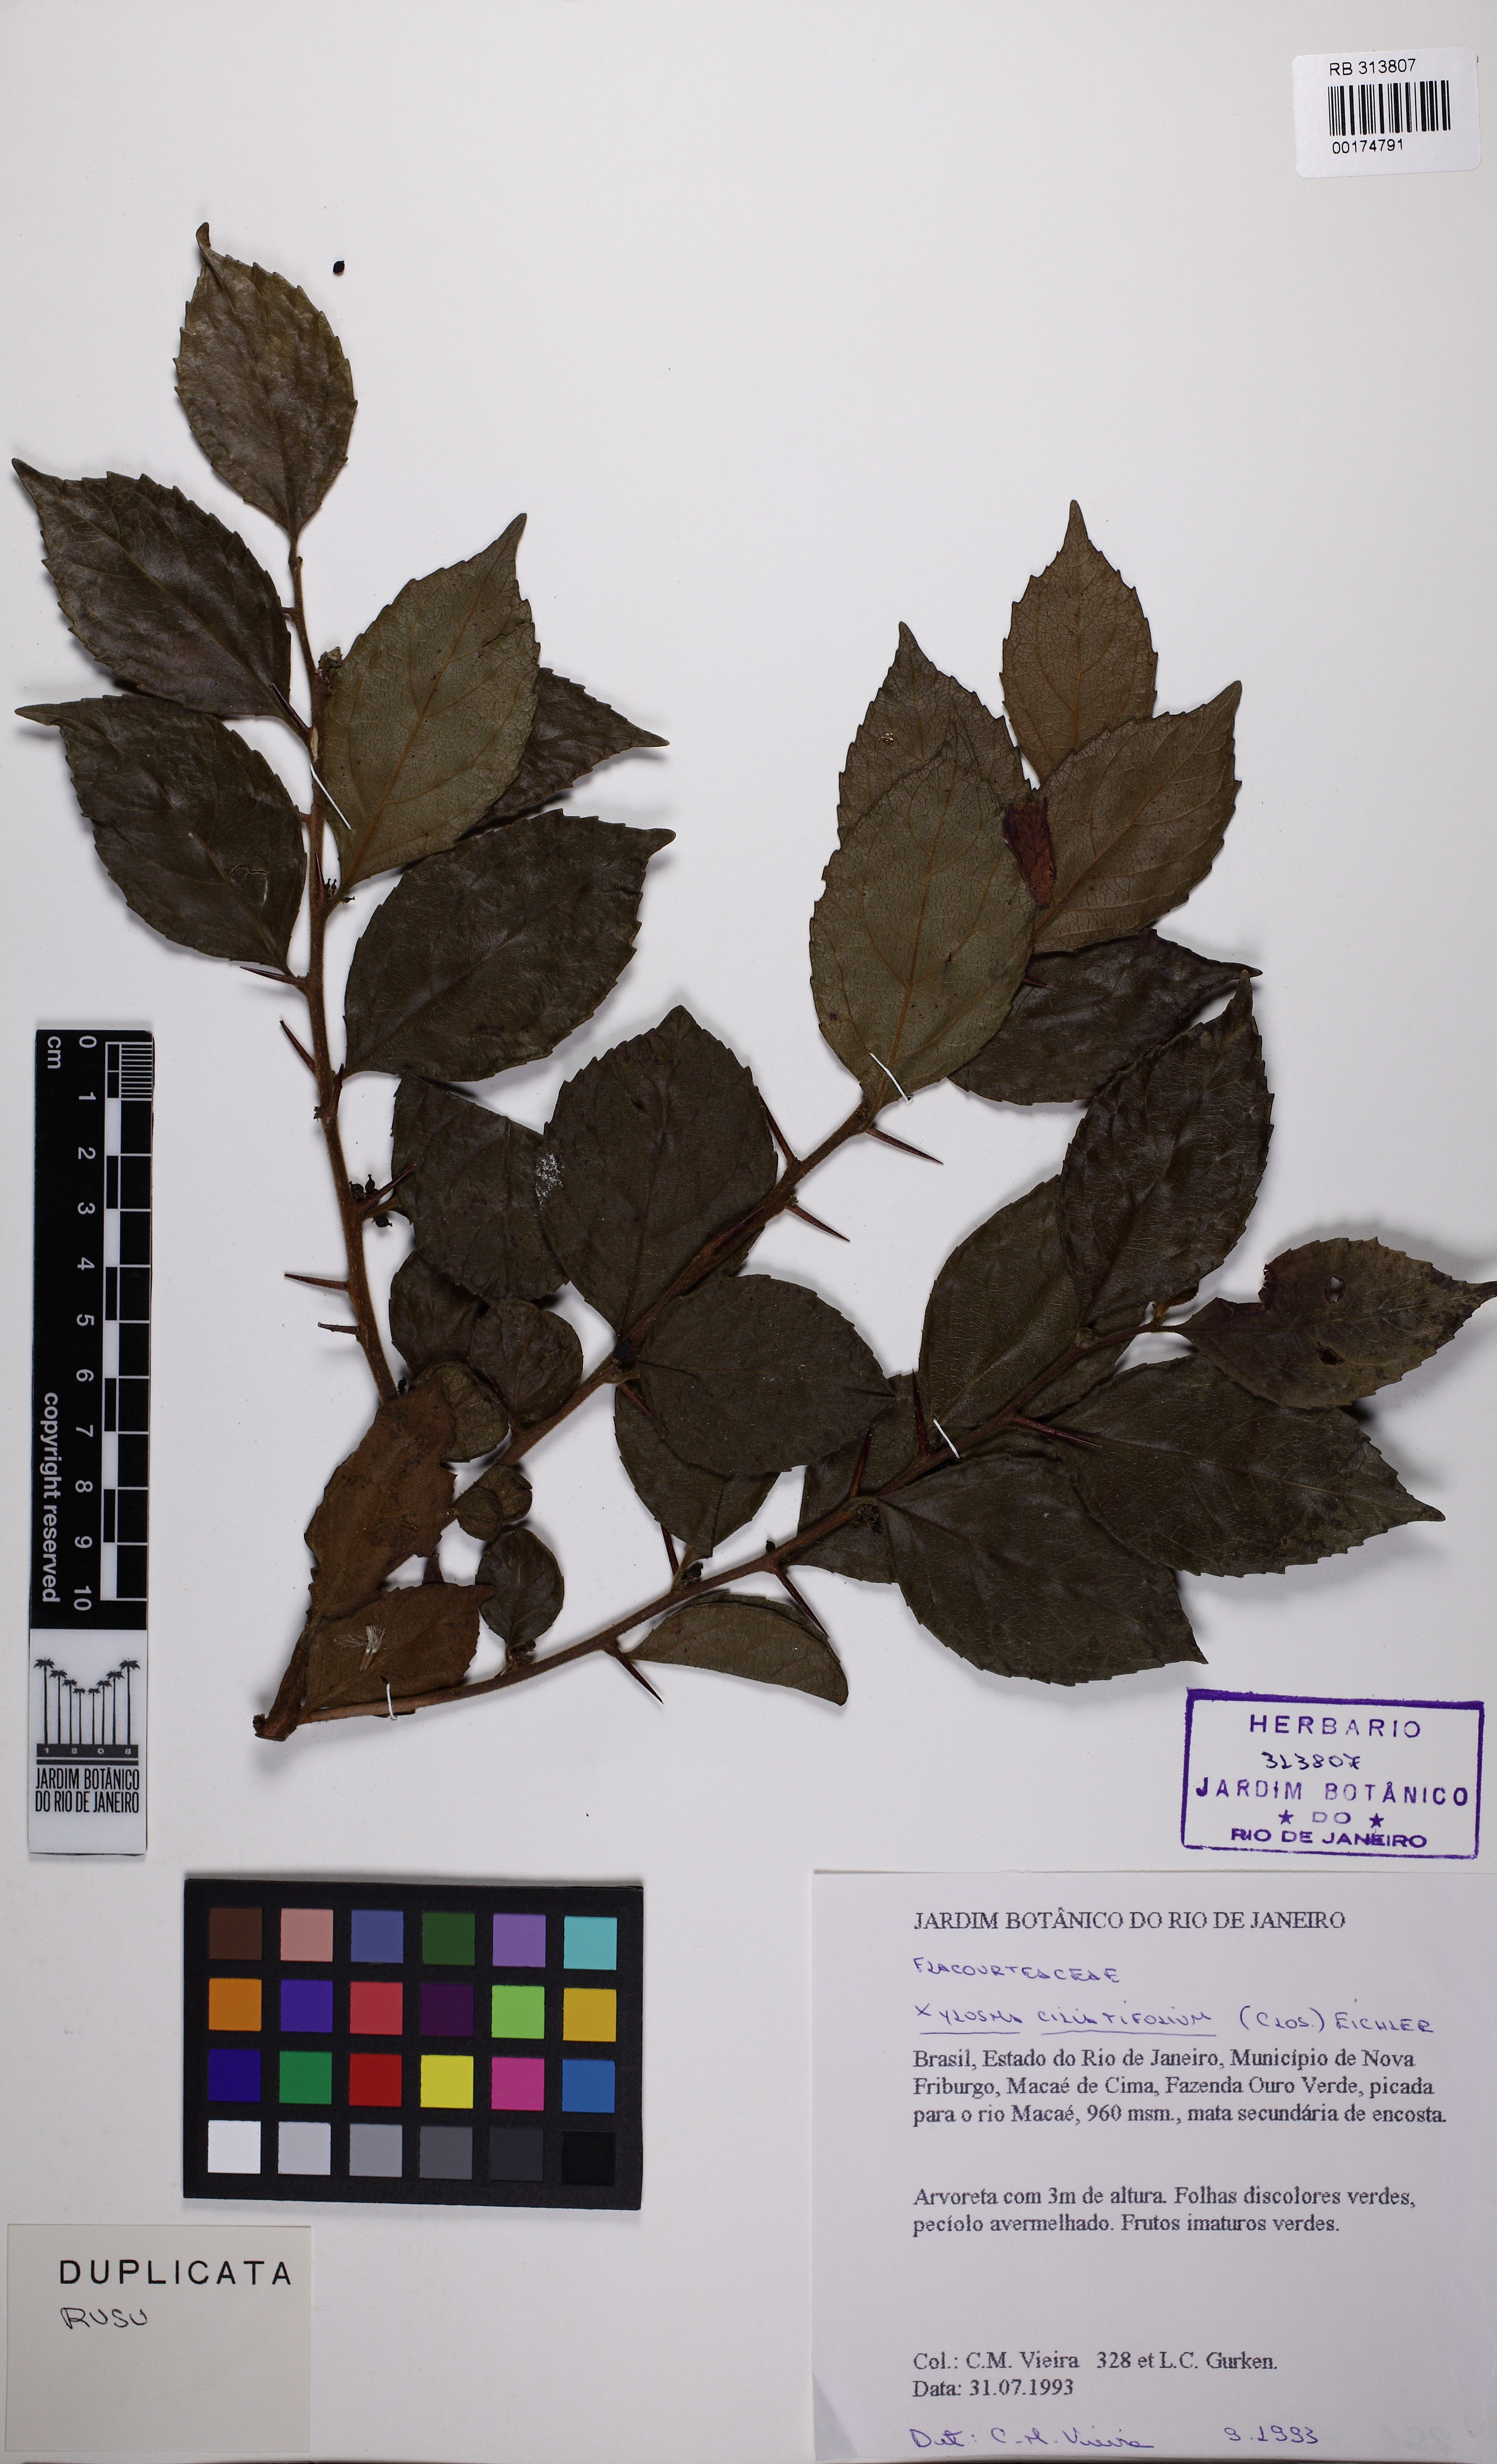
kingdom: Plantae
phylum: Tracheophyta
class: Magnoliopsida
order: Malpighiales
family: Salicaceae
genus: Xylosma
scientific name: Xylosma ciliatifolia
